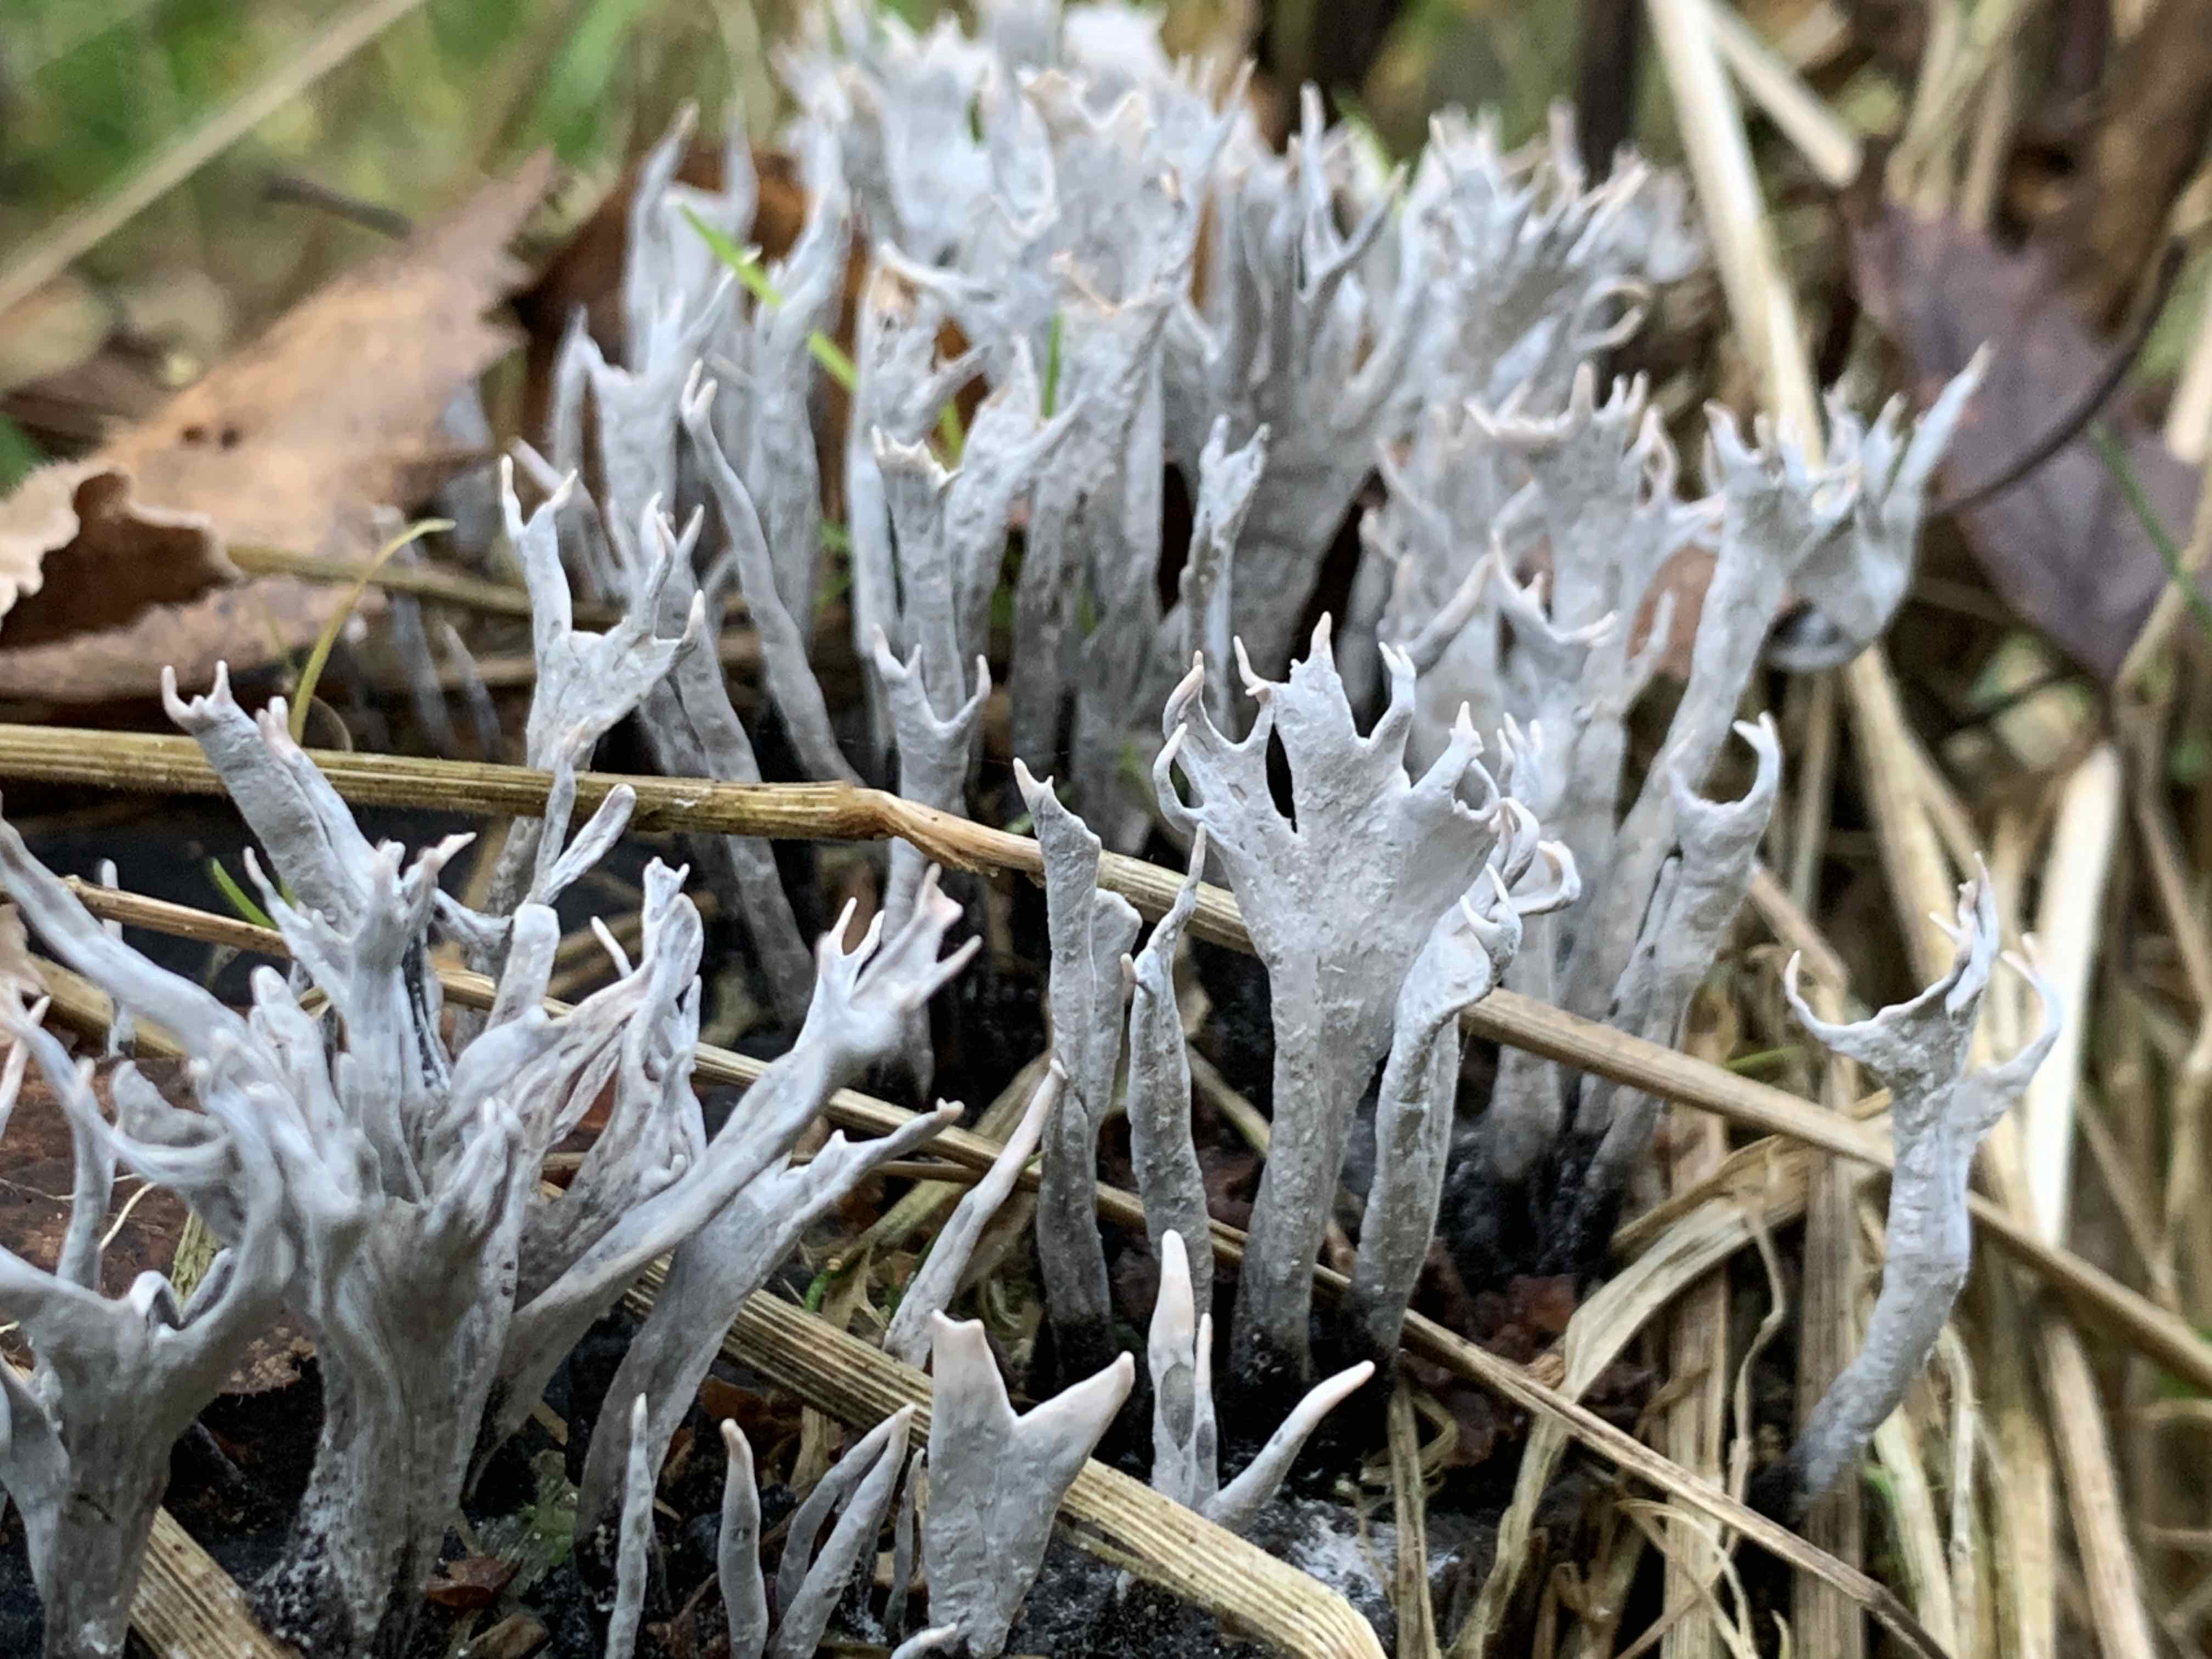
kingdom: Fungi
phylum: Ascomycota
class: Sordariomycetes
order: Xylariales
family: Xylariaceae
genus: Xylaria
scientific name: Xylaria hypoxylon
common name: grenet stødsvamp
